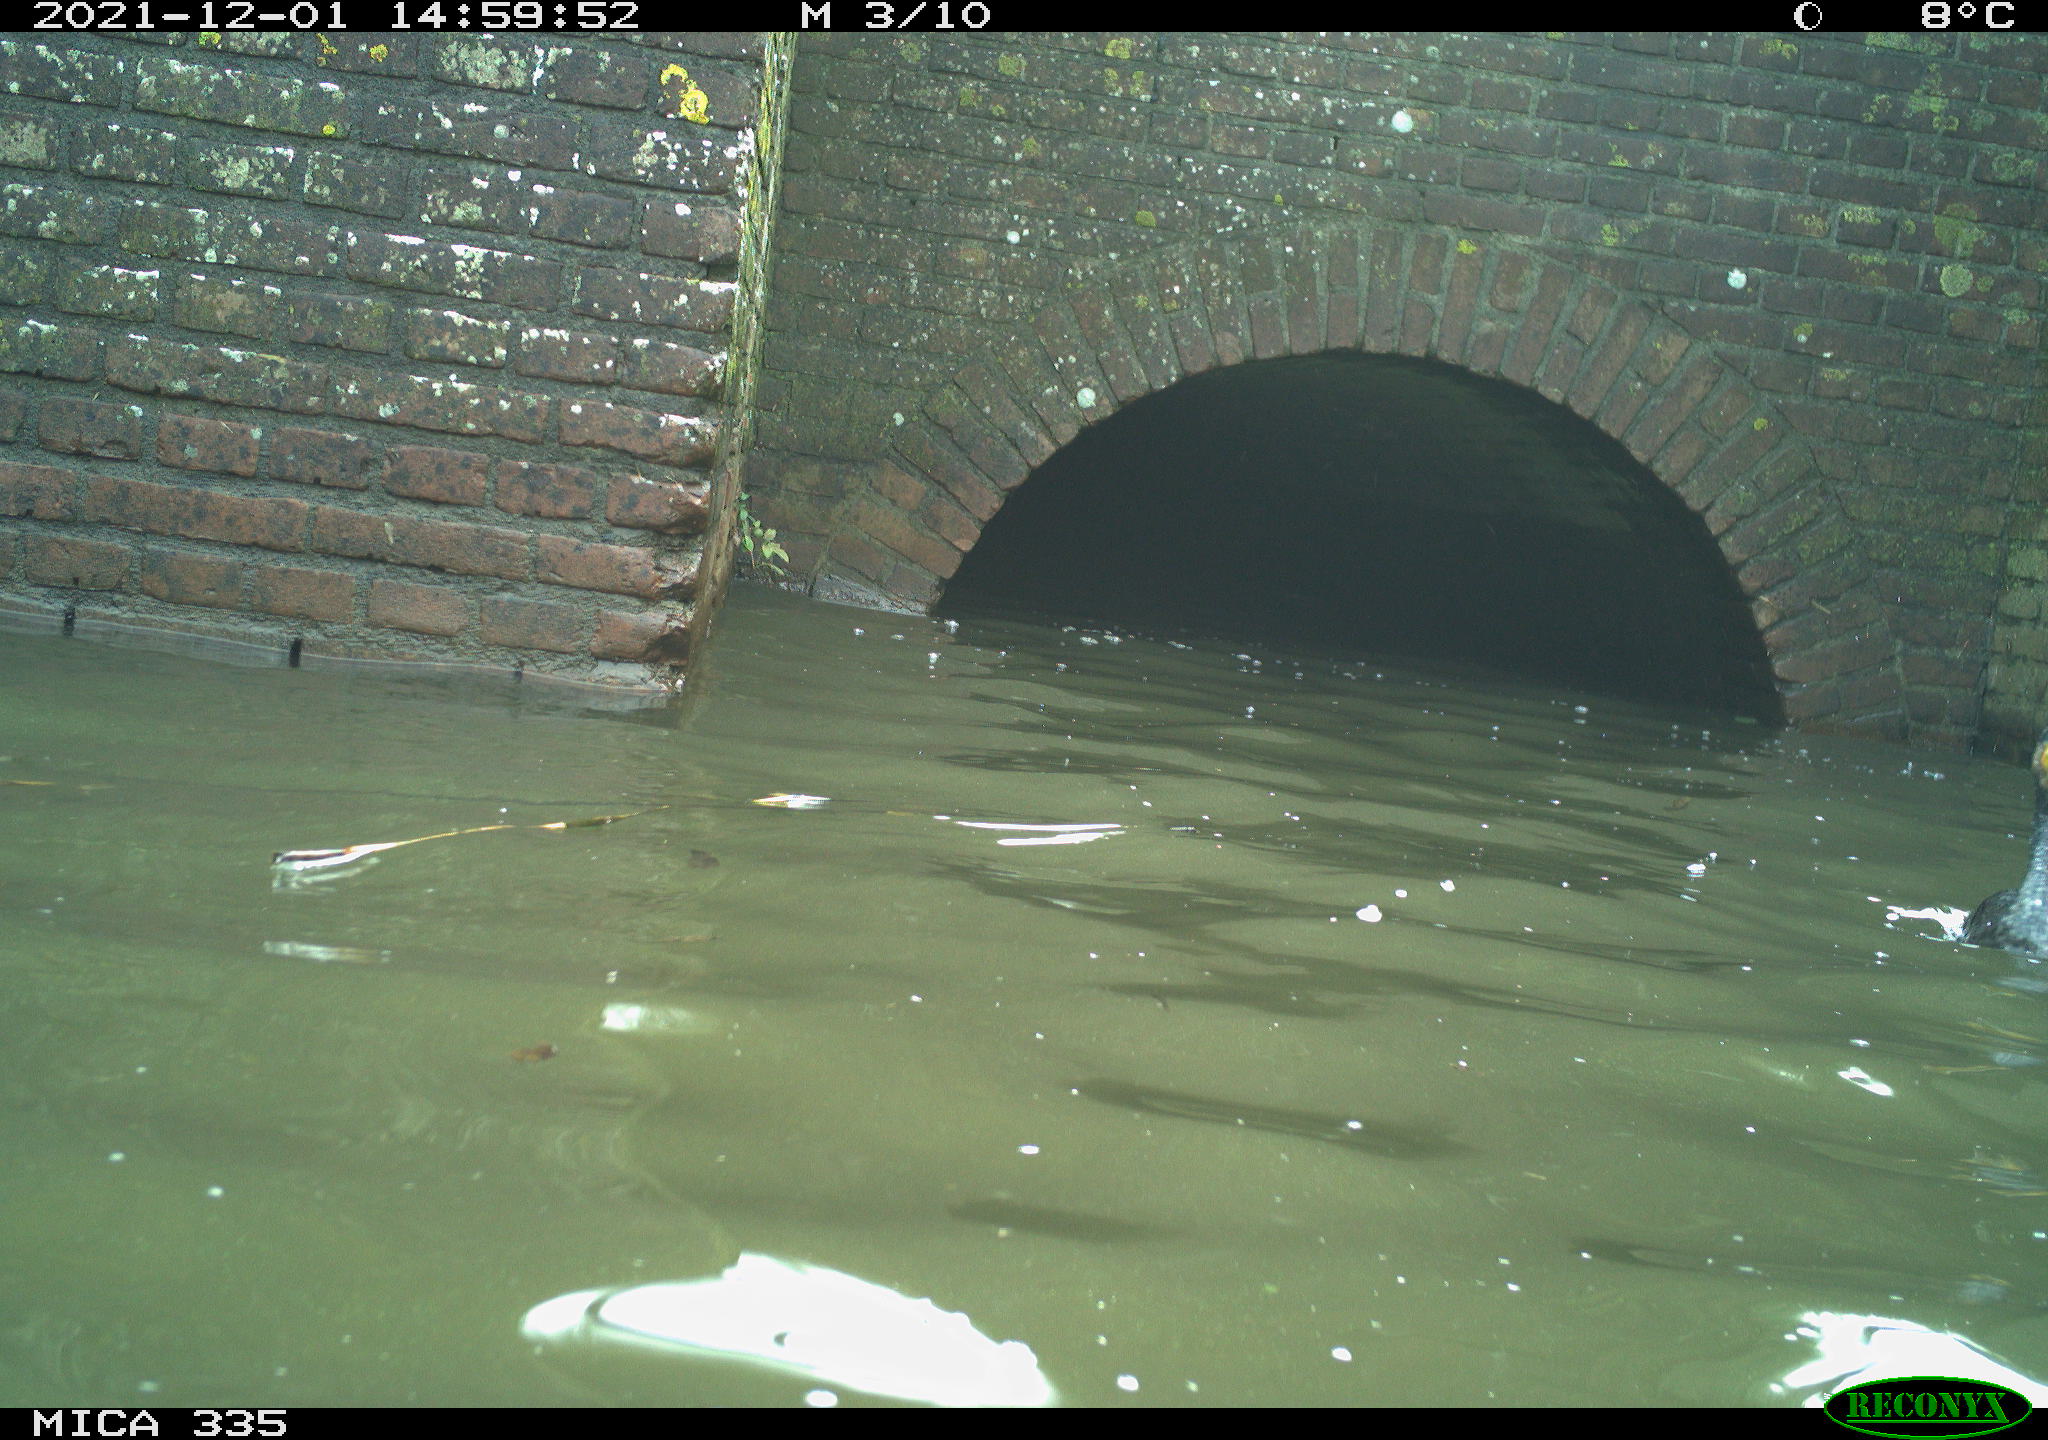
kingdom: Animalia
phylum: Chordata
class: Aves
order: Gruiformes
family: Rallidae
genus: Fulica
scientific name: Fulica atra
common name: Eurasian coot
